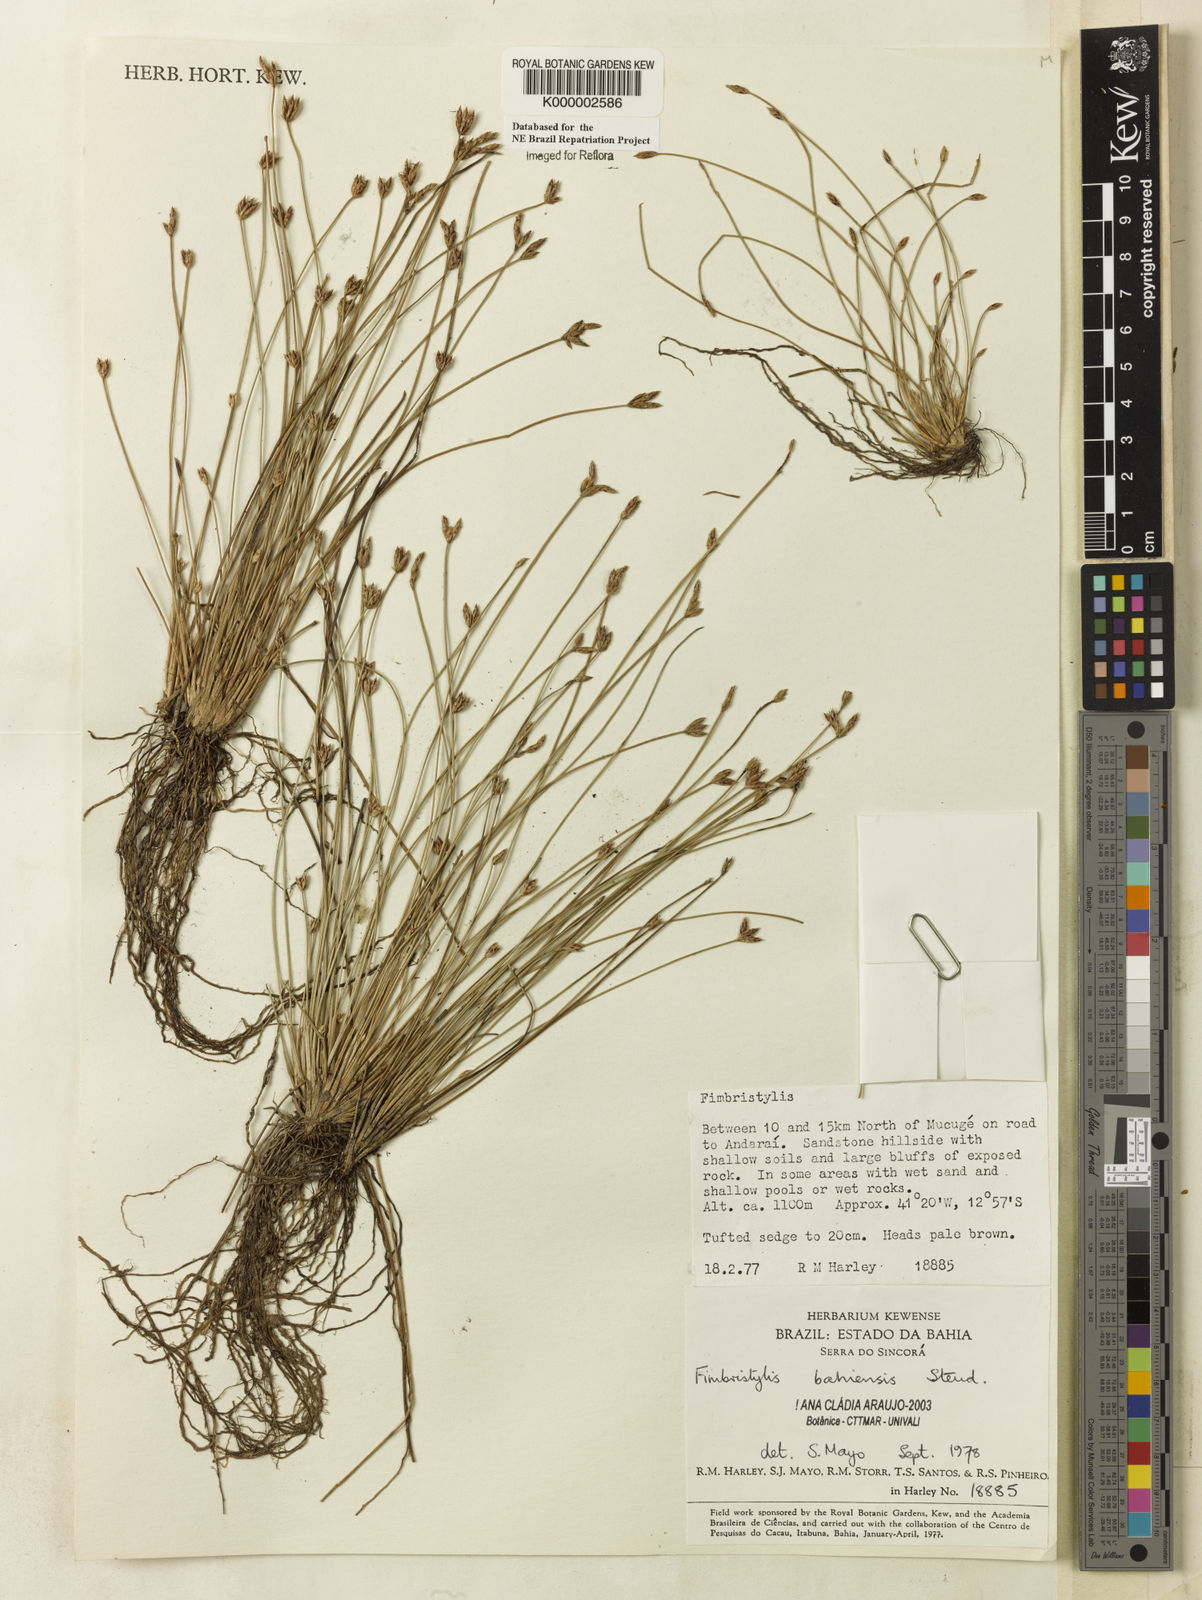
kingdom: Plantae
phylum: Tracheophyta
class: Liliopsida
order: Poales
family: Cyperaceae
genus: Fimbristylis
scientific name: Fimbristylis bahiensis
